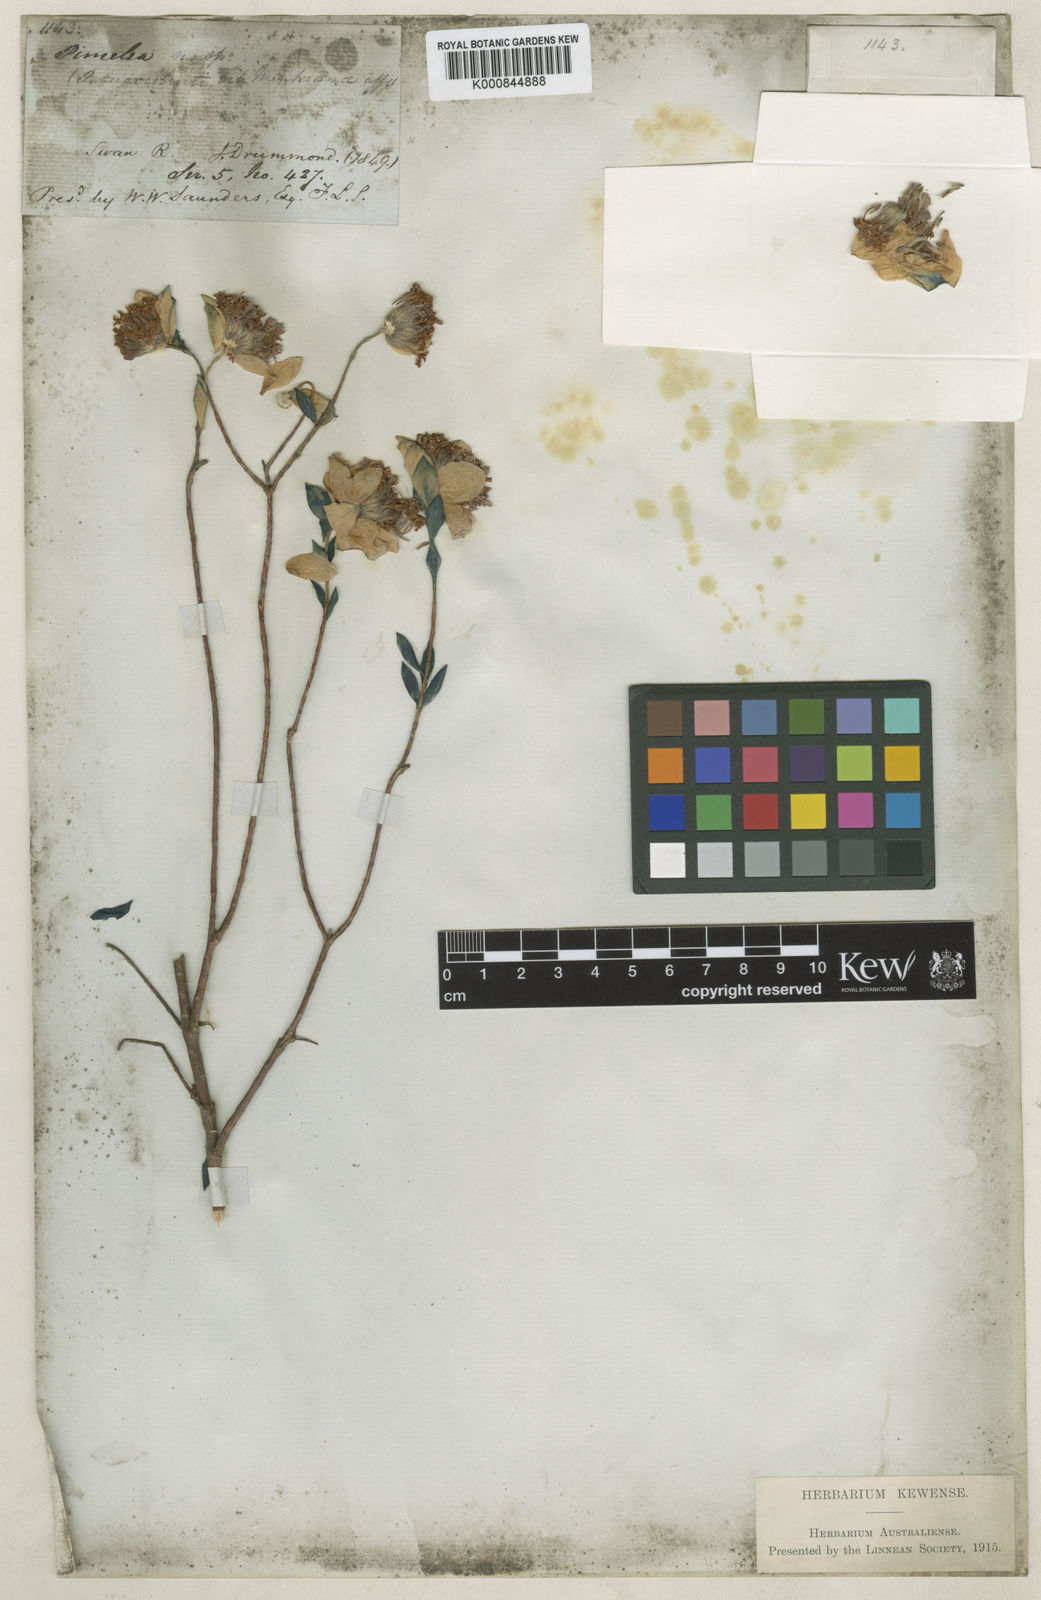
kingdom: Plantae
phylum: Tracheophyta
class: Magnoliopsida
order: Malvales
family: Thymelaeaceae
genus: Pimelea
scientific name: Pimelea tinctoria
